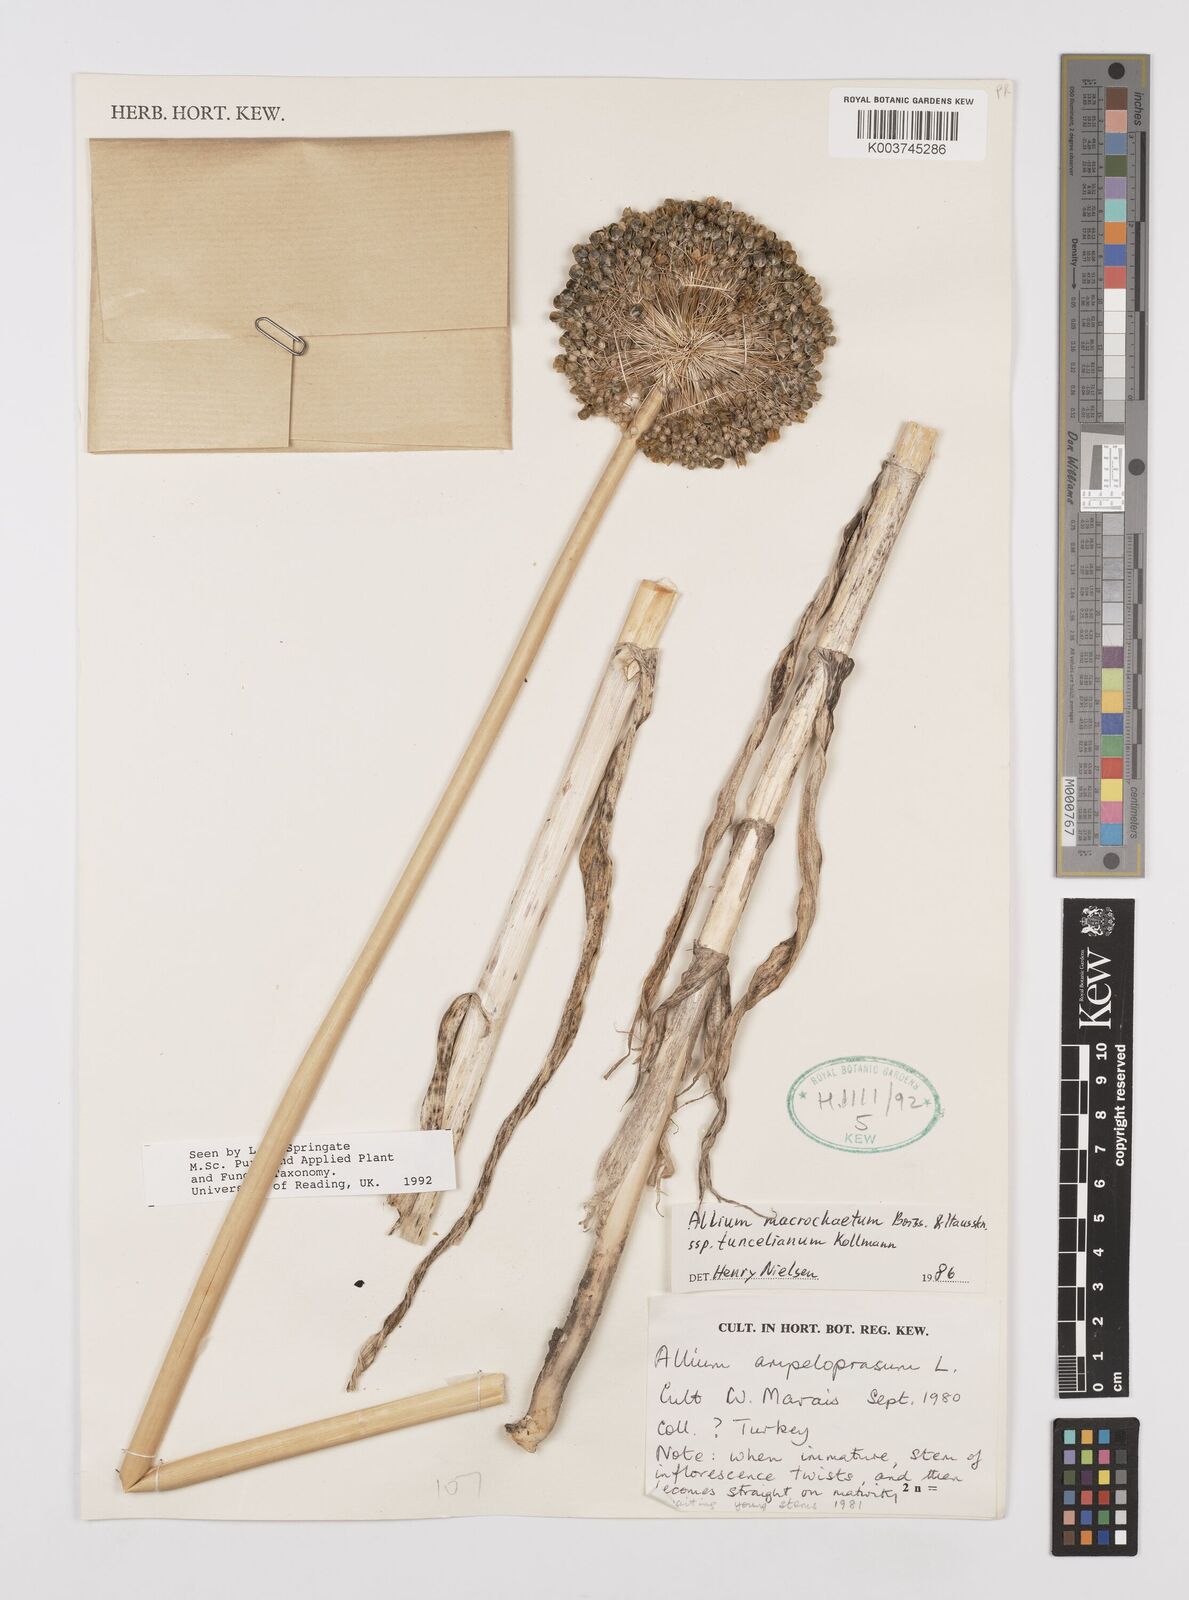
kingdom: Plantae
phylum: Tracheophyta
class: Liliopsida
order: Asparagales
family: Amaryllidaceae
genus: Allium
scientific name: Allium tuncelianum
